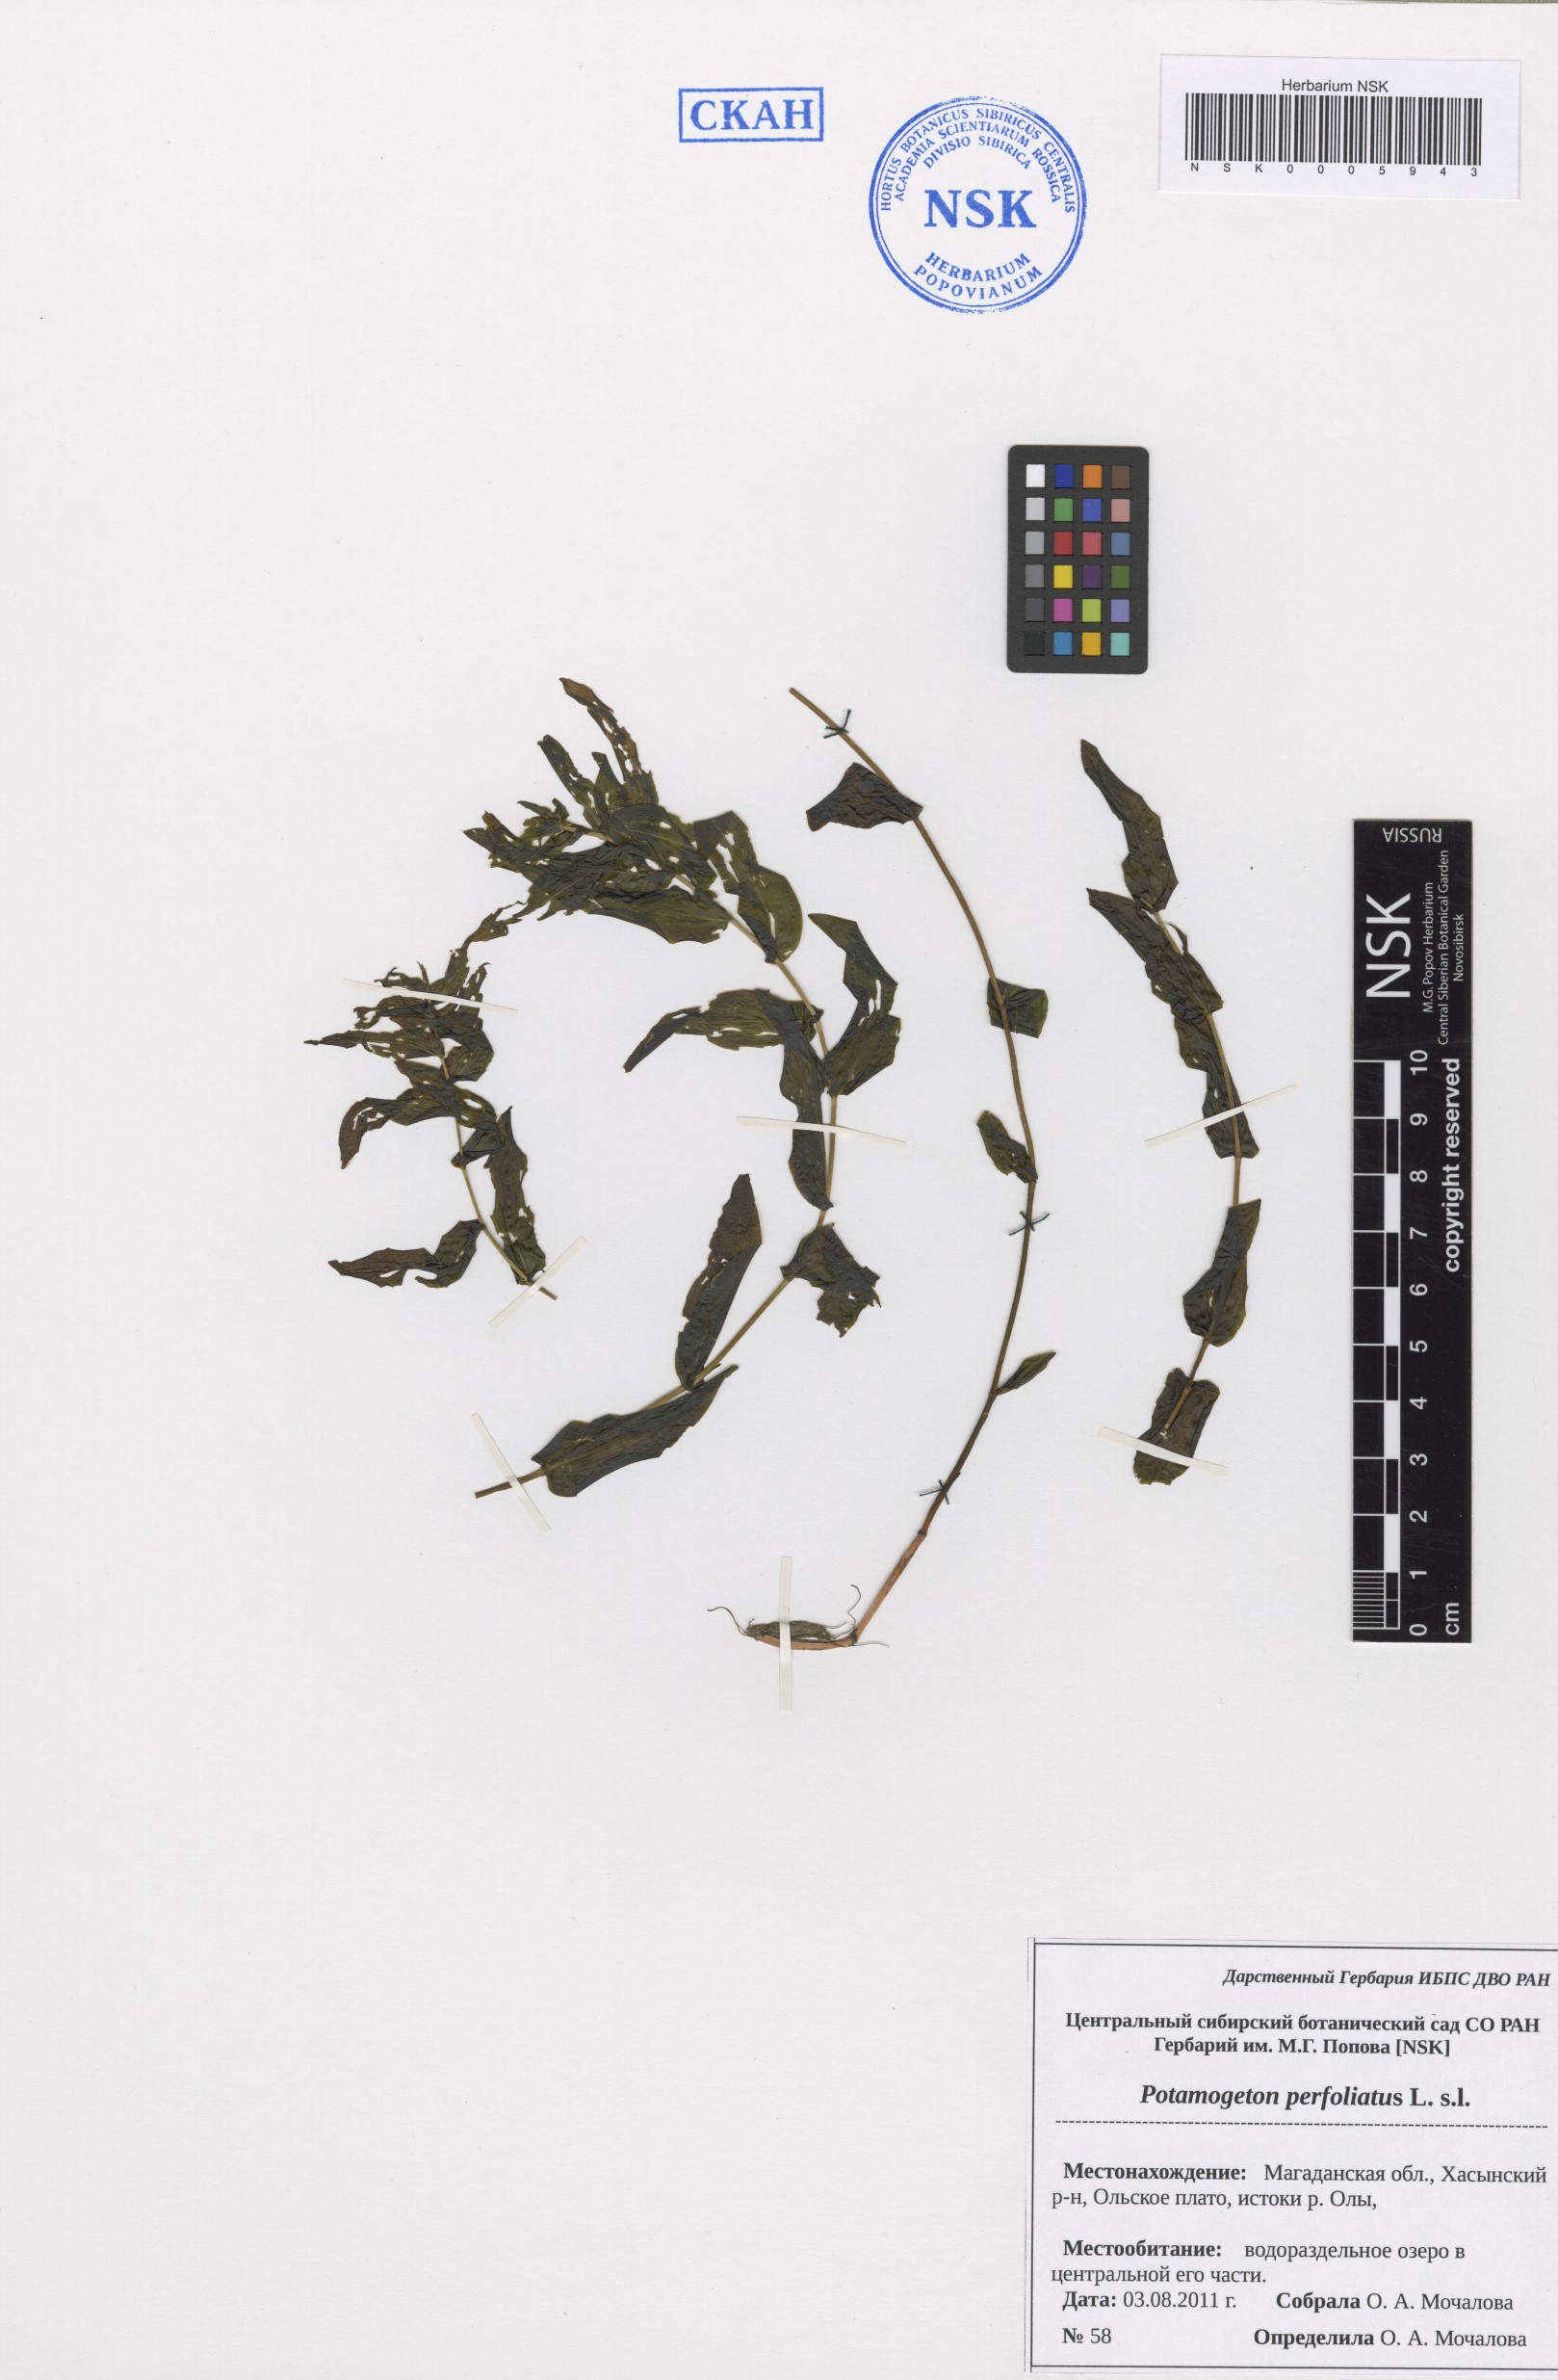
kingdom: Plantae
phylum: Tracheophyta
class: Liliopsida
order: Alismatales
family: Potamogetonaceae
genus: Potamogeton
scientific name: Potamogeton perfoliatus
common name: Perfoliate pondweed
